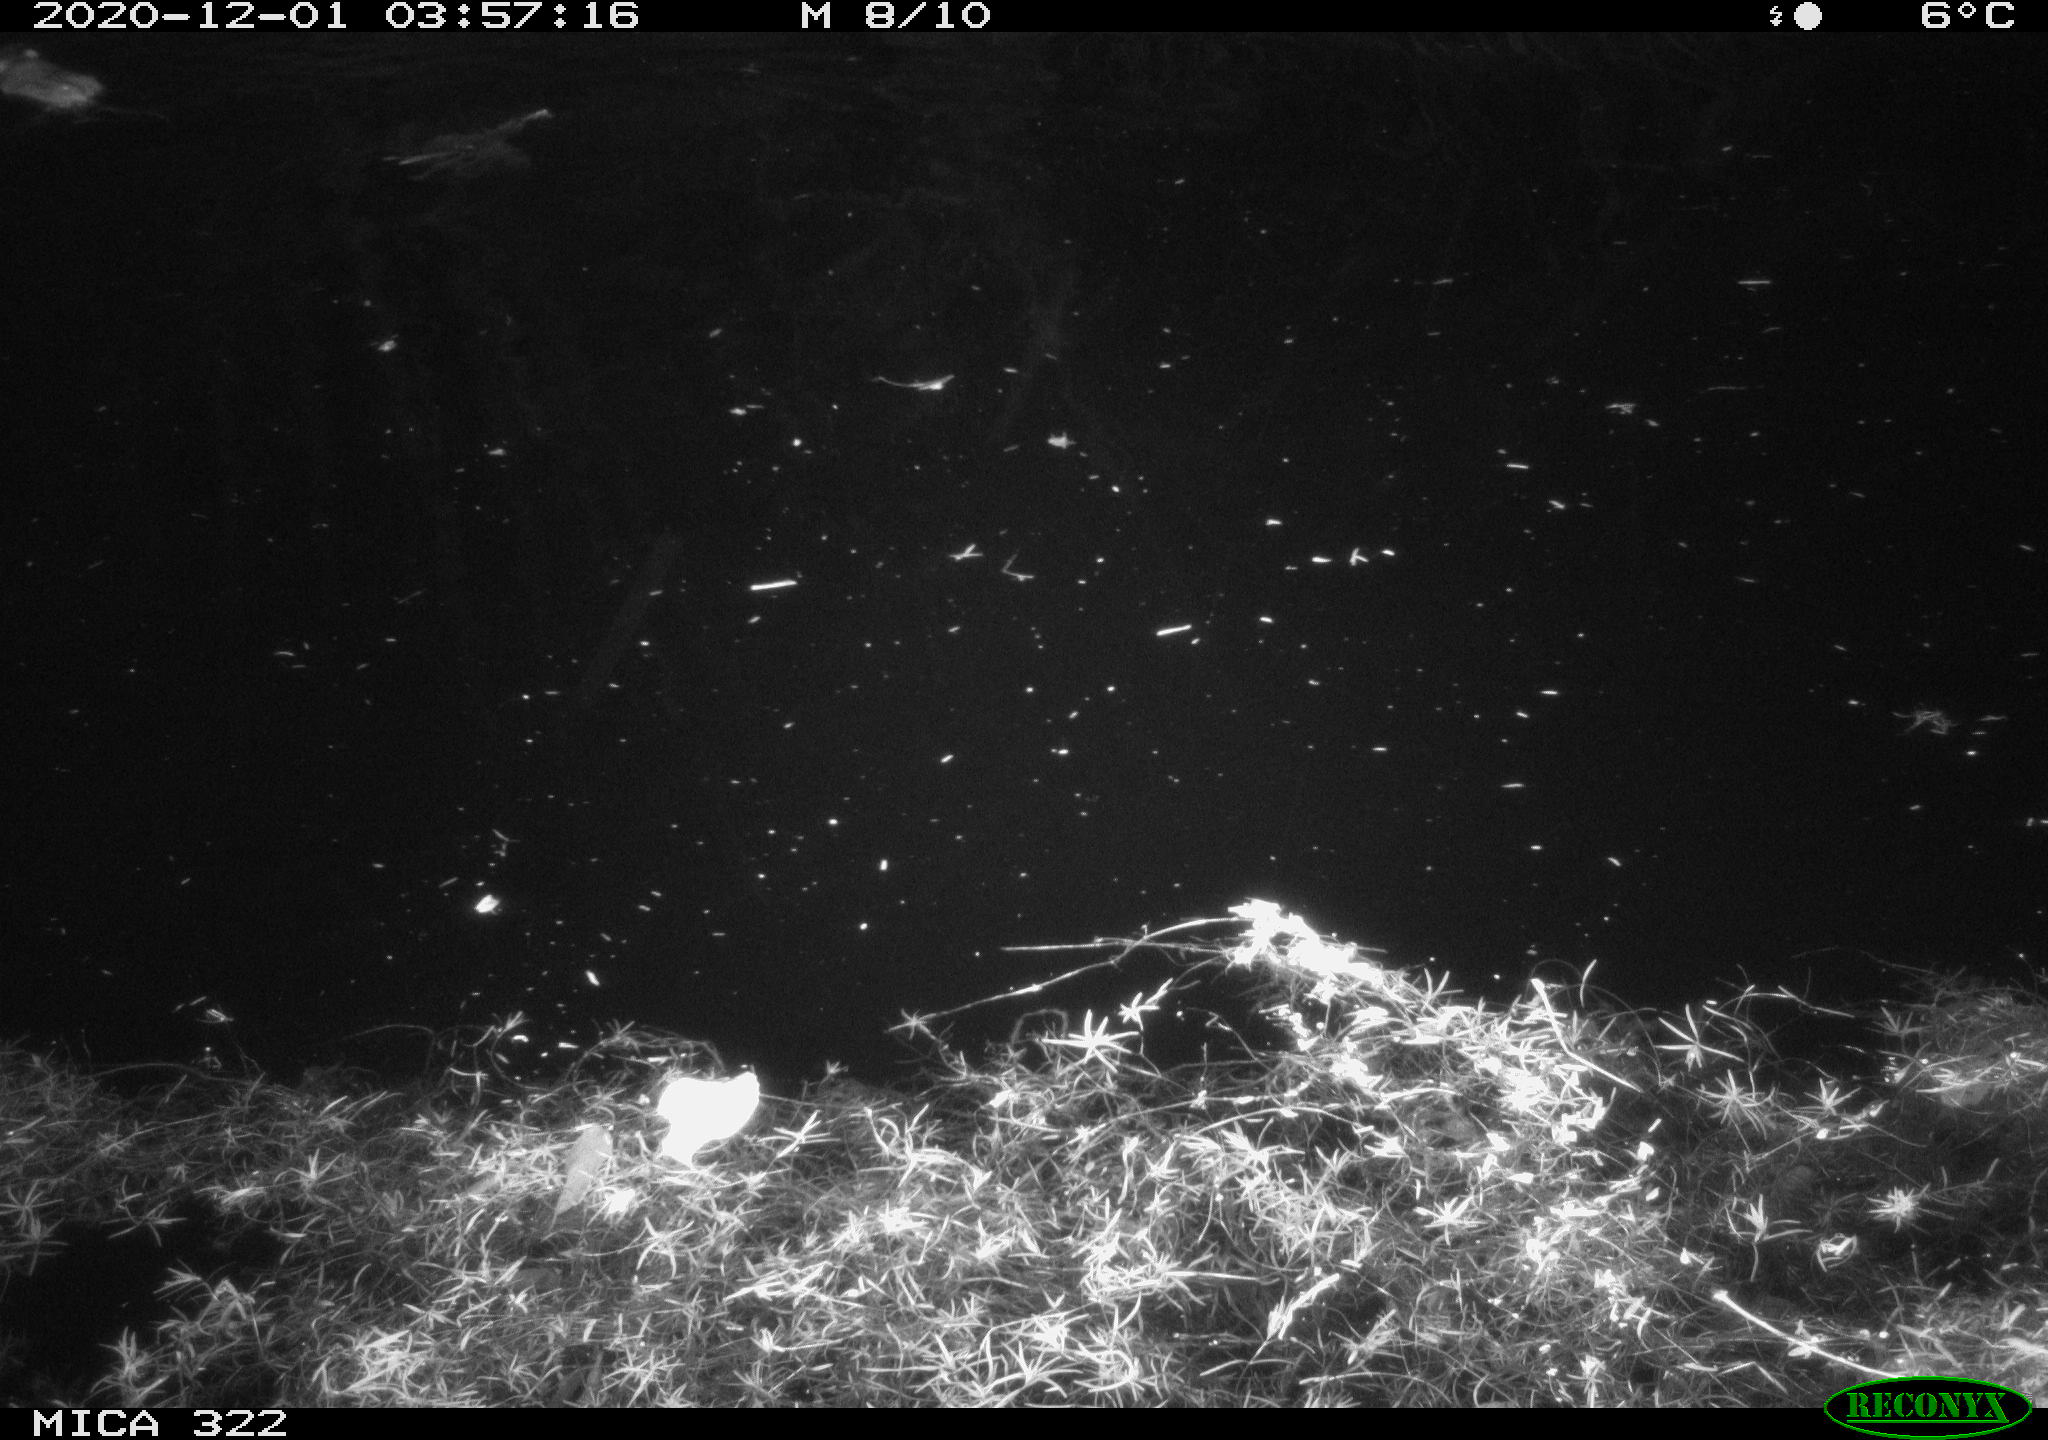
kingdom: Animalia
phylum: Chordata
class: Mammalia
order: Rodentia
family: Muridae
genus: Rattus
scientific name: Rattus norvegicus
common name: Brown rat
